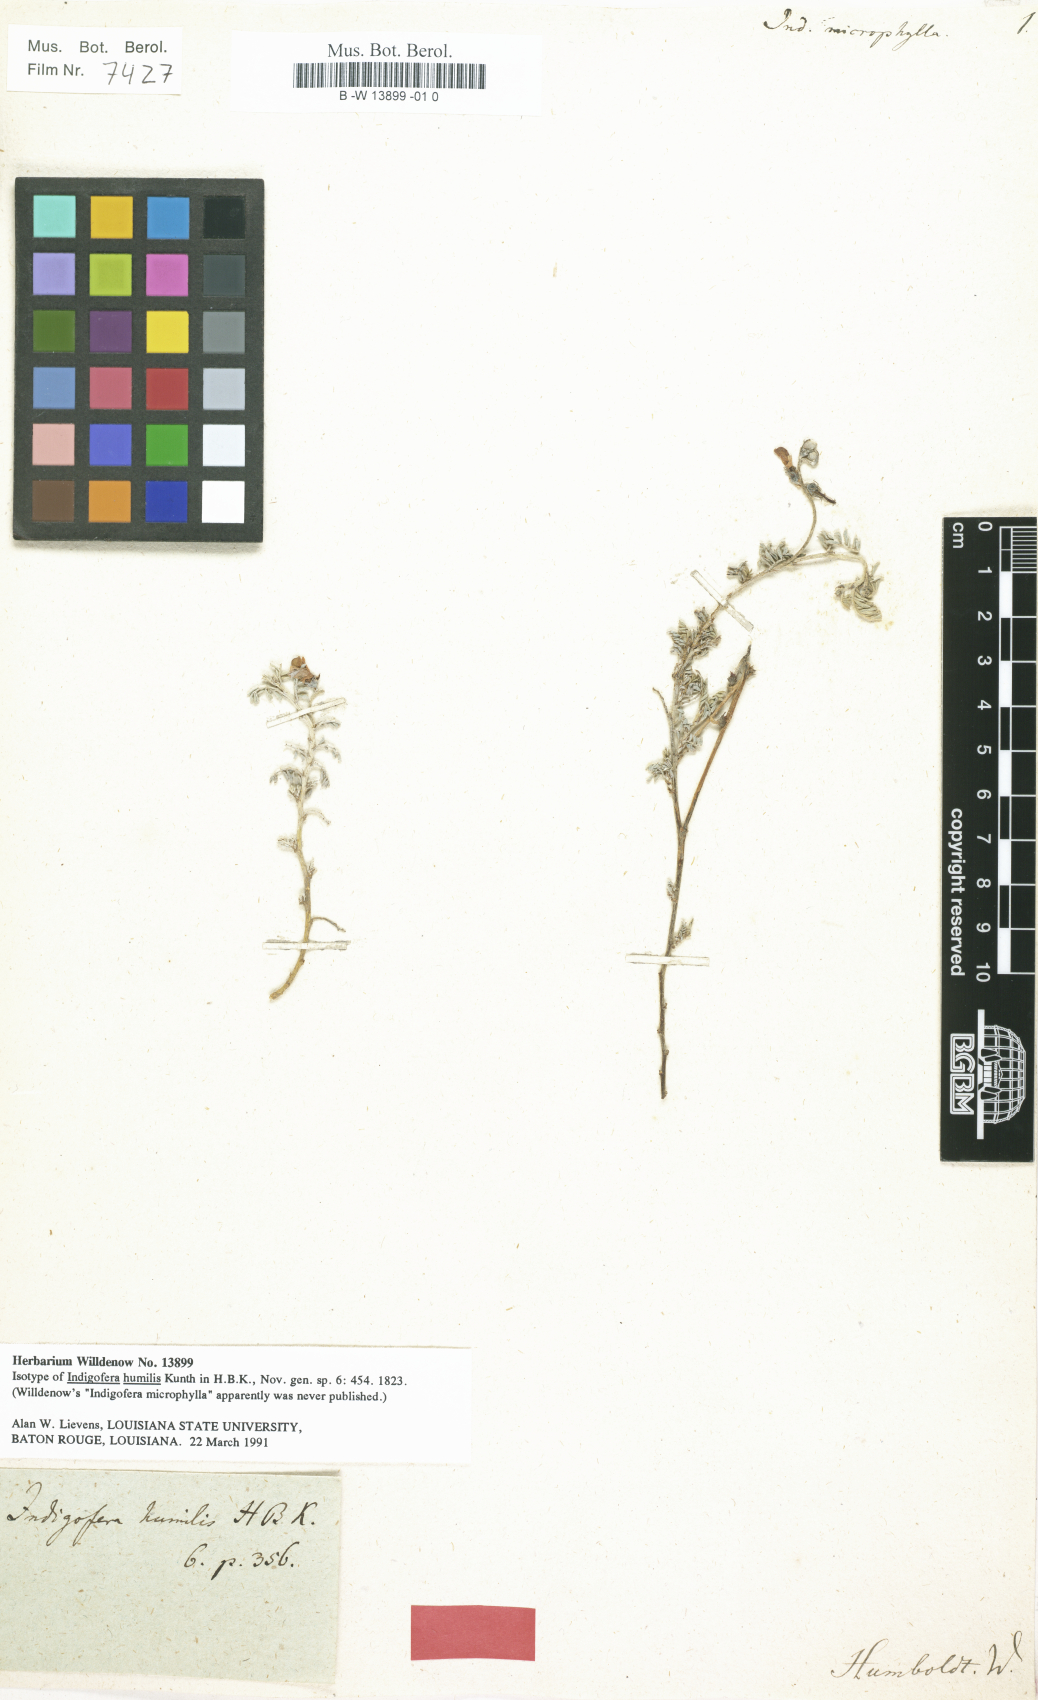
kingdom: Plantae
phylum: Tracheophyta
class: Magnoliopsida
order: Fabales
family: Fabaceae
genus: Indigofera
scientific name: Indigofera sarmentosa
